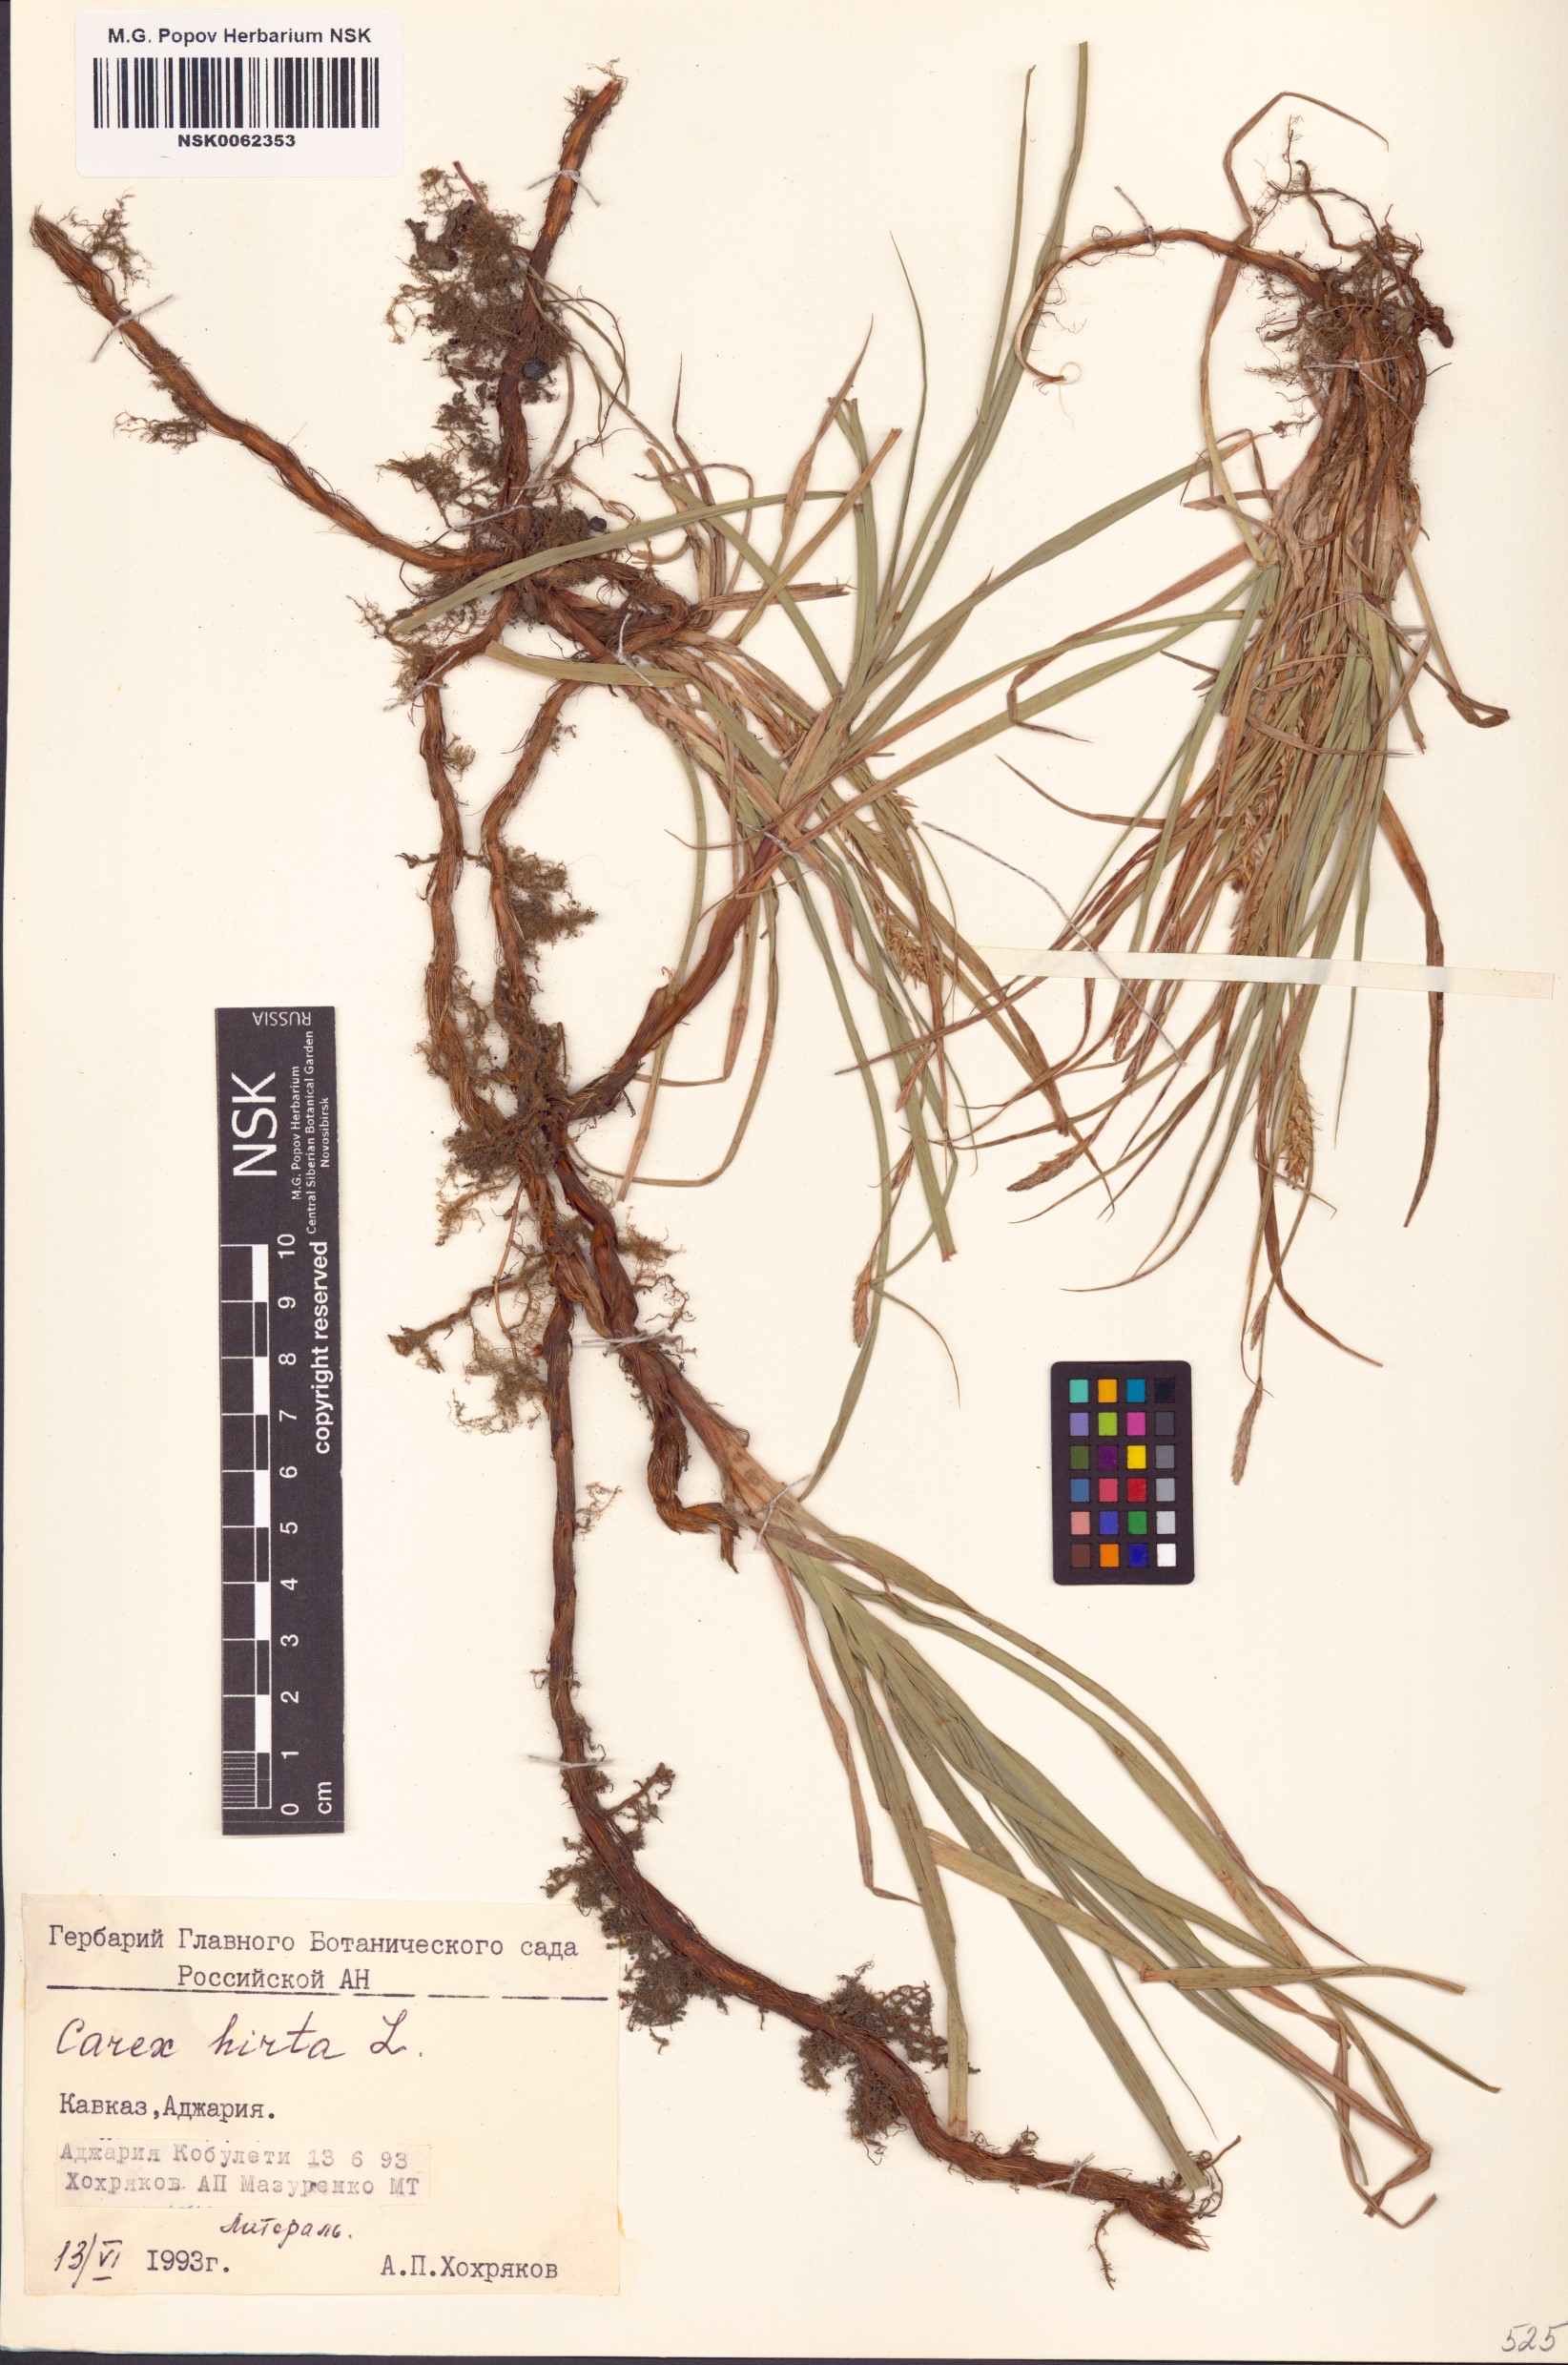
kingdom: Plantae
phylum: Tracheophyta
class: Liliopsida
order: Poales
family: Cyperaceae
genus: Carex
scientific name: Carex hirta
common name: Hairy sedge
